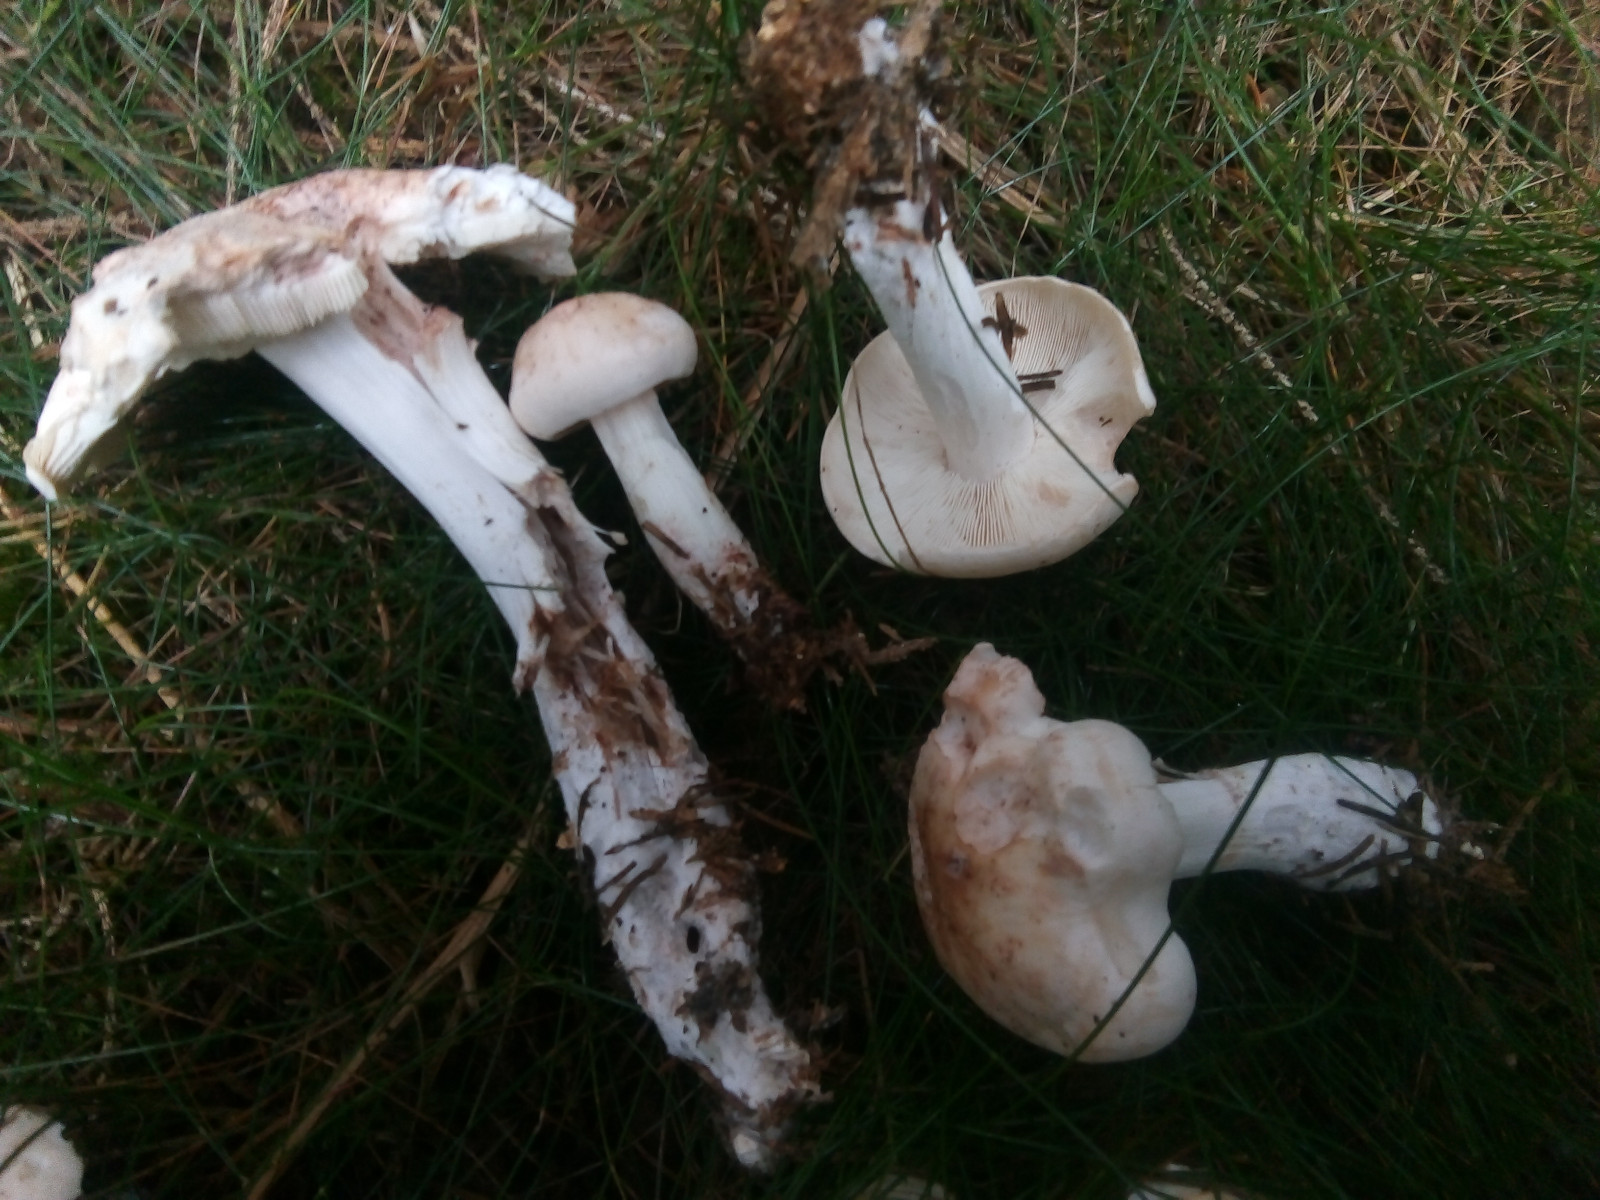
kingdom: Fungi
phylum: Basidiomycota
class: Agaricomycetes
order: Agaricales
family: Omphalotaceae
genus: Rhodocollybia
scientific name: Rhodocollybia maculata
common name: plettet fladhat
